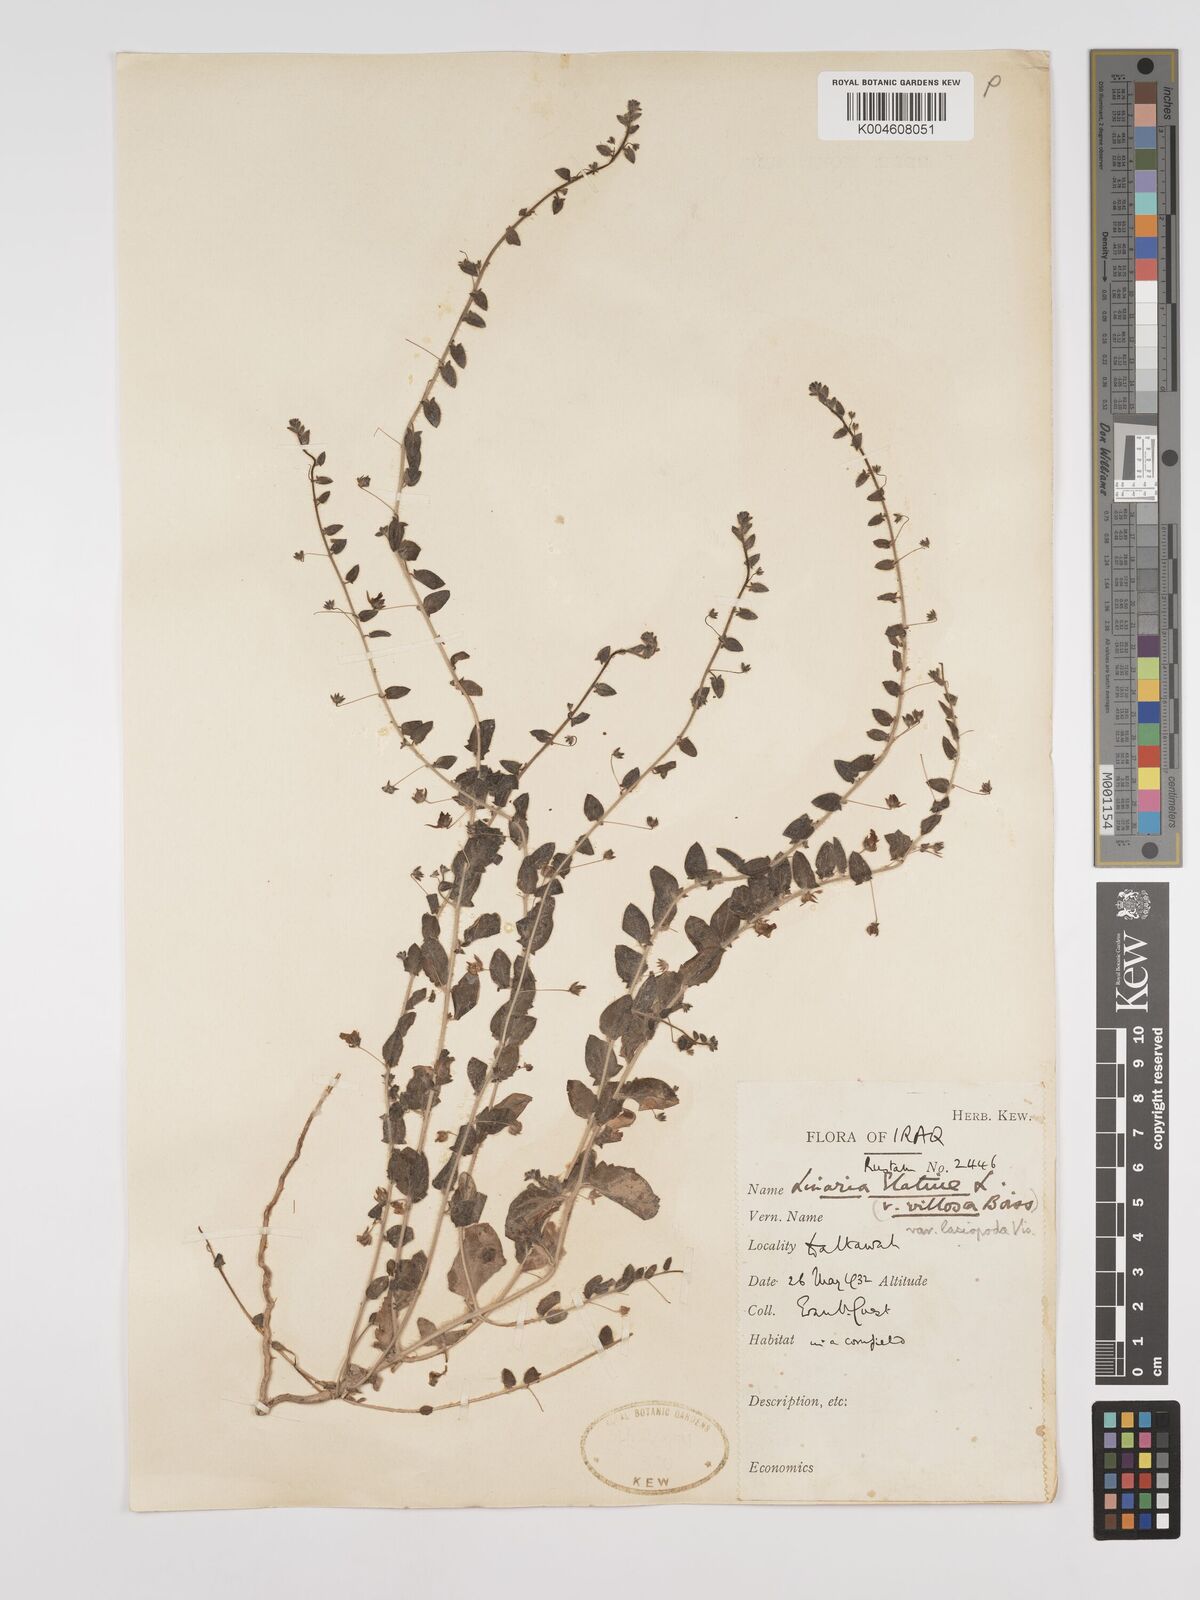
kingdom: Plantae
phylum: Tracheophyta
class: Magnoliopsida
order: Lamiales
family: Plantaginaceae
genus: Kickxia
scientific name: Kickxia elatine
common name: Sharp-leaved fluellen
